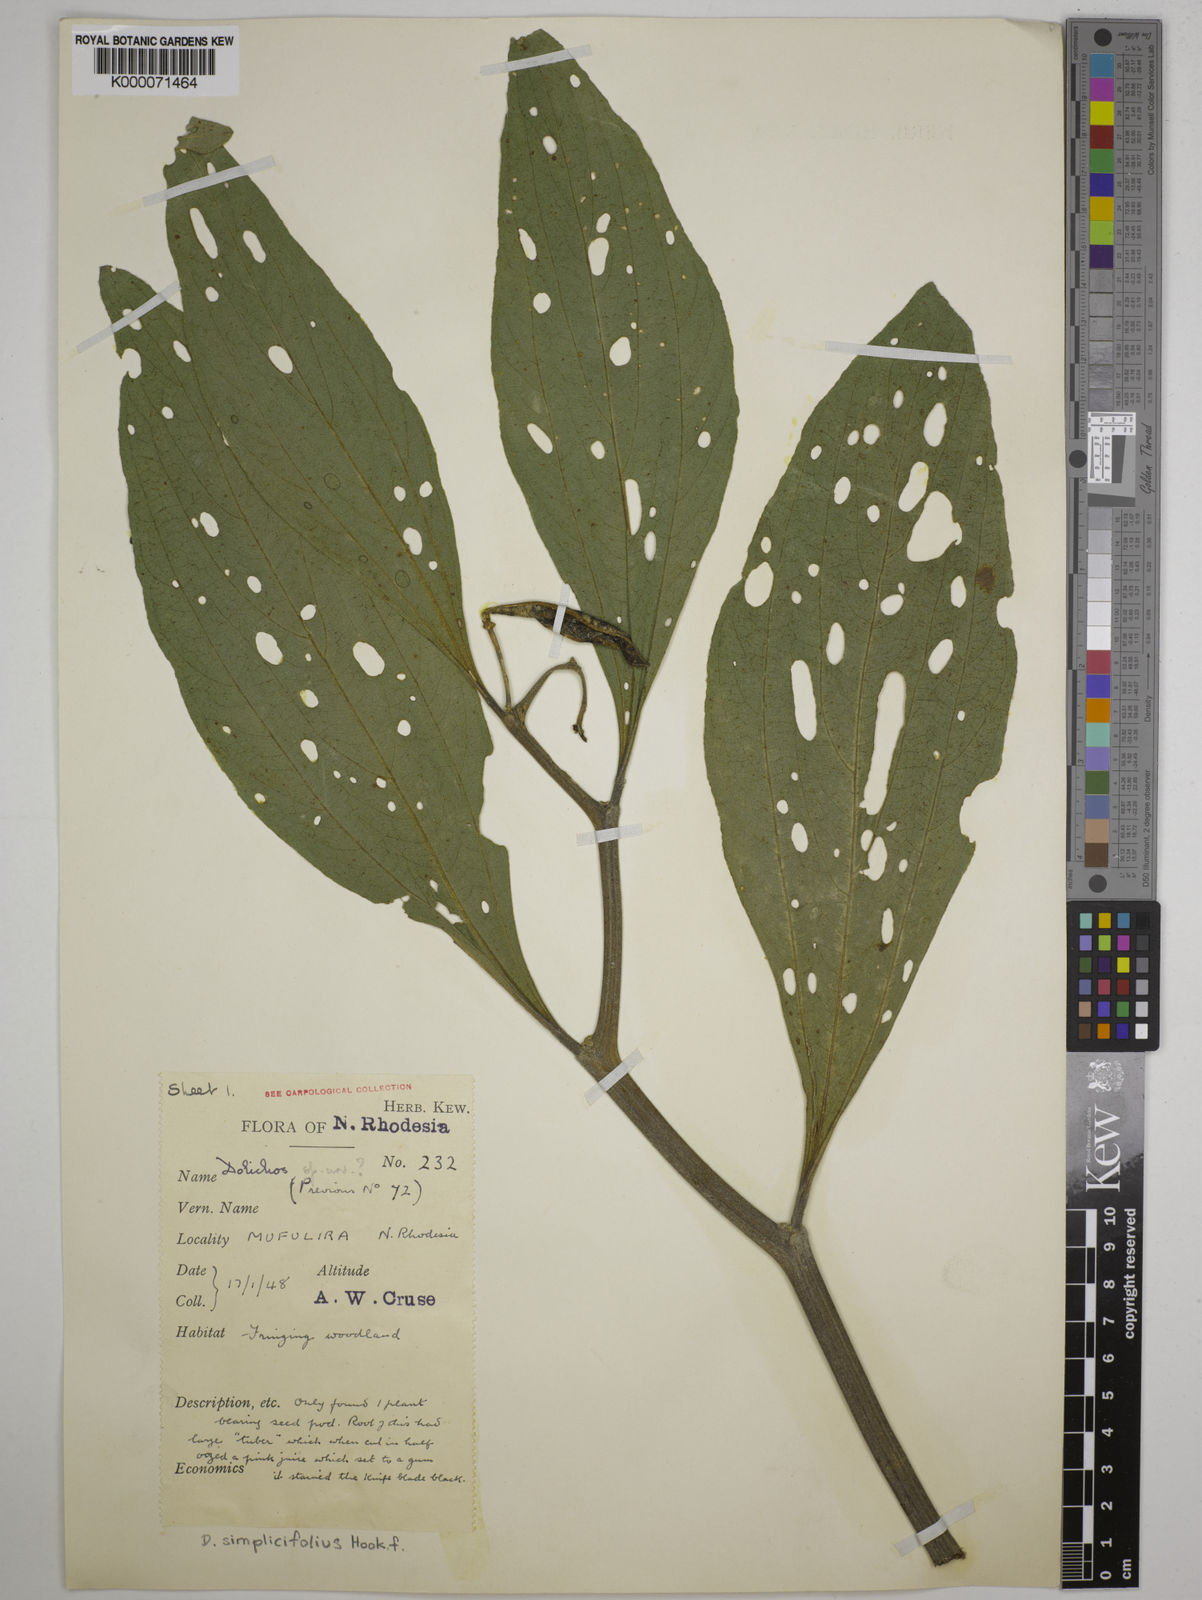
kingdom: Plantae
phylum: Tracheophyta
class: Magnoliopsida
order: Fabales
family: Fabaceae
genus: Dolichos
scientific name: Dolichos simplicifolius
